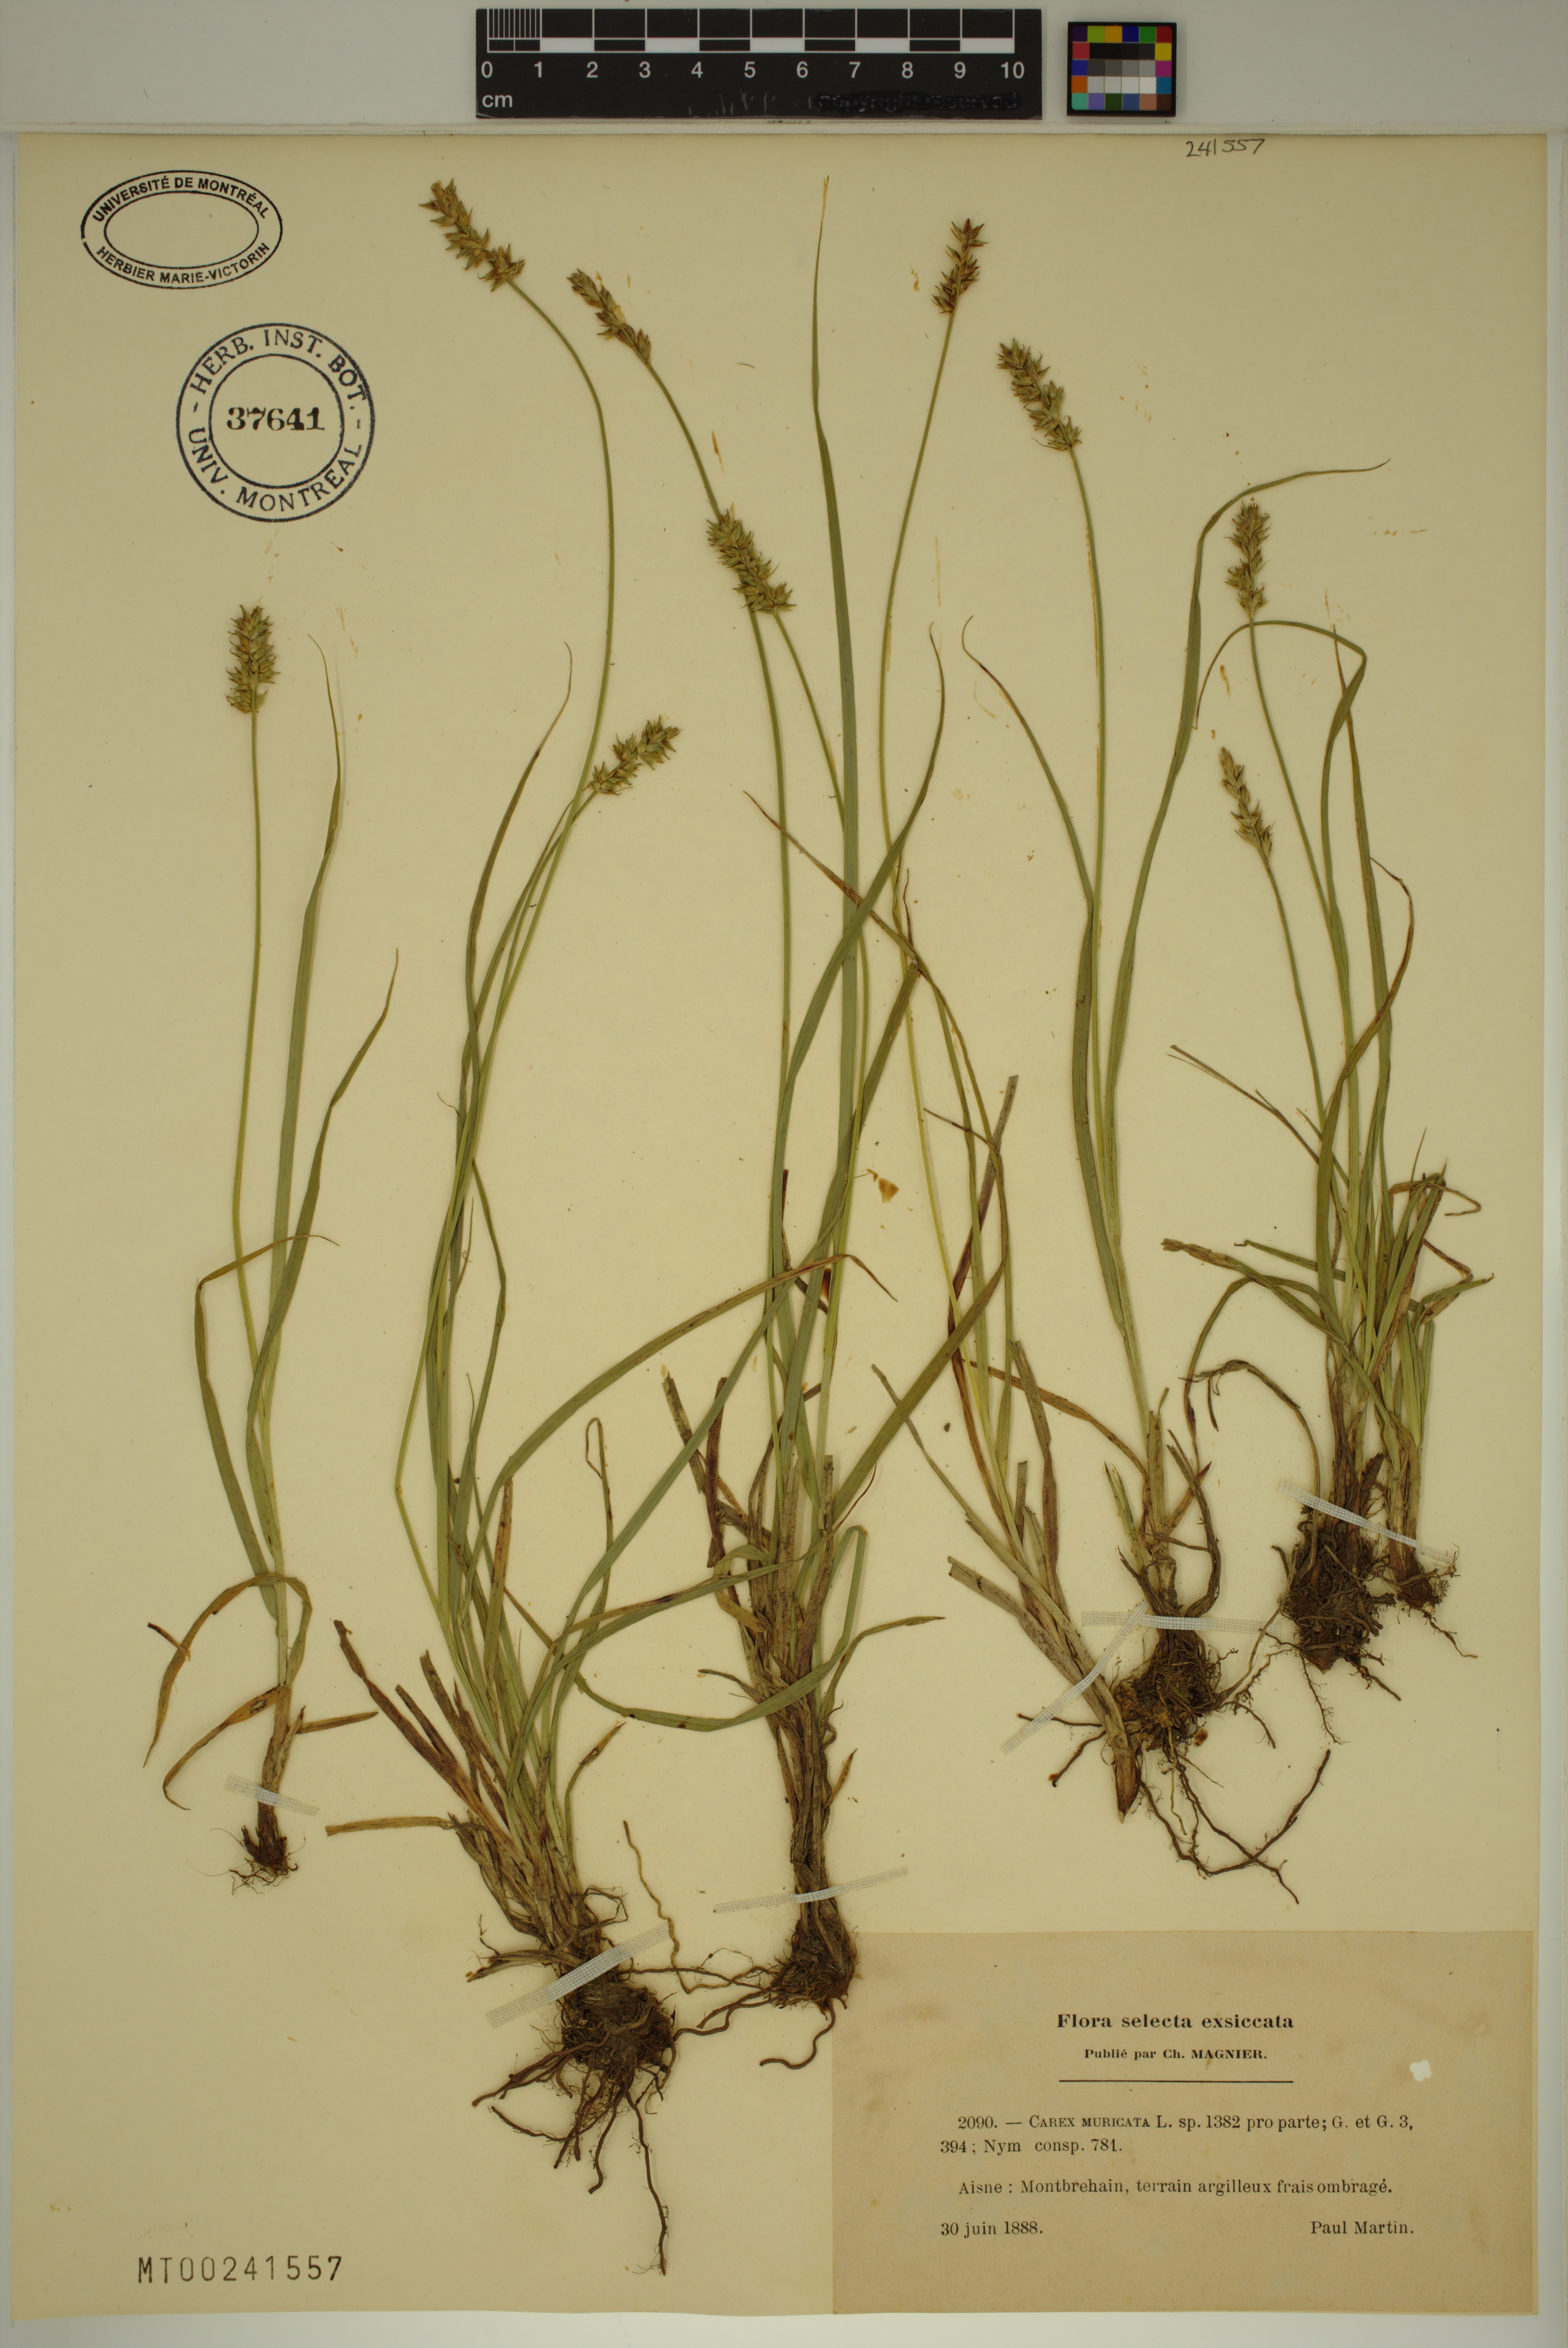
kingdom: Plantae
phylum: Tracheophyta
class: Liliopsida
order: Poales
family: Cyperaceae
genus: Carex
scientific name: Carex muricata
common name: Rough sedge
